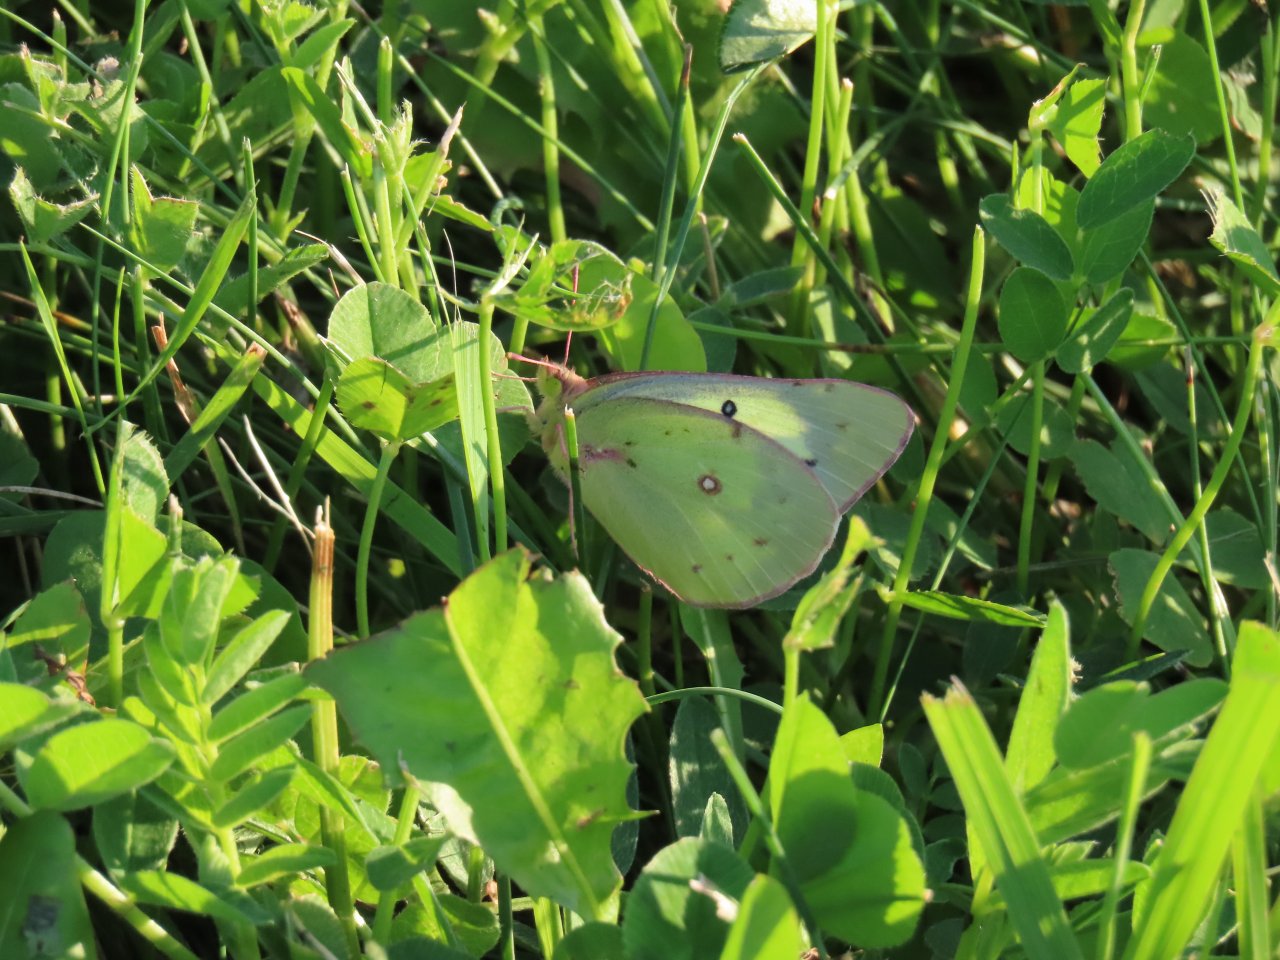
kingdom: Animalia
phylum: Arthropoda
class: Insecta
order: Lepidoptera
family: Pieridae
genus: Colias
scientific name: Colias eurytheme
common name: Orange Sulphur
